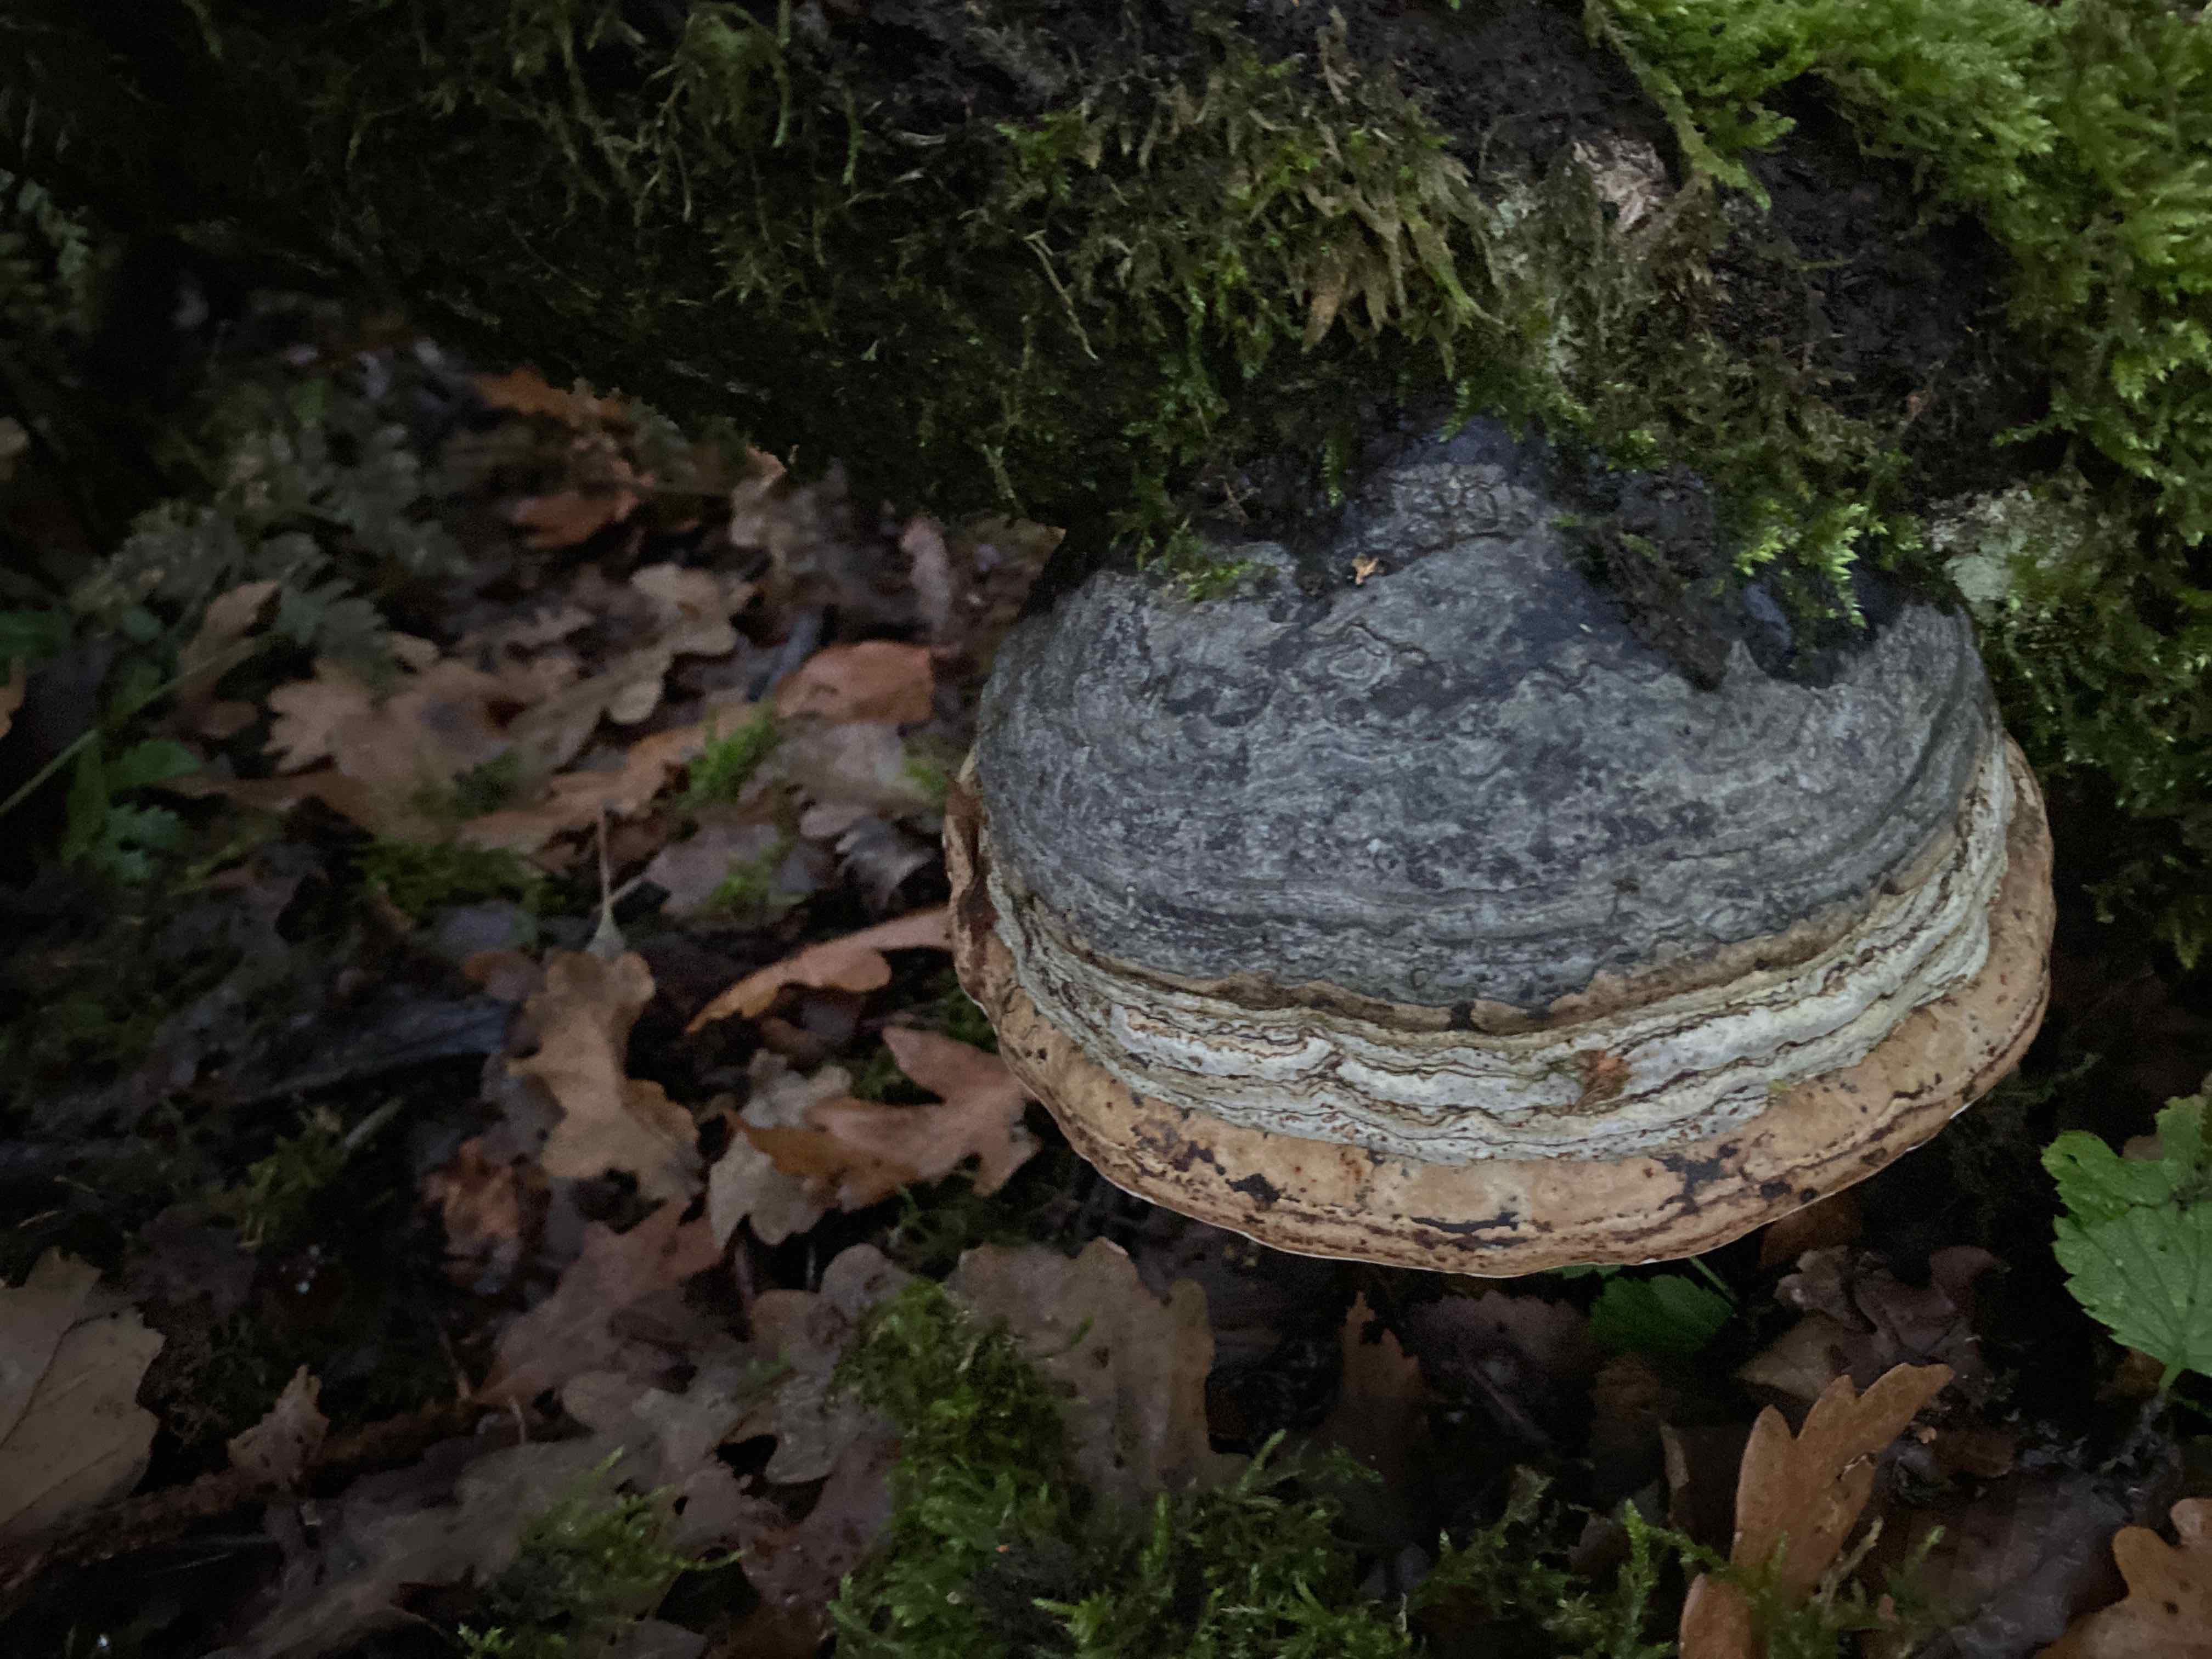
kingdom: Fungi
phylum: Basidiomycota
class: Agaricomycetes
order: Polyporales
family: Polyporaceae
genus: Fomes
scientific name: Fomes fomentarius
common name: tøndersvamp
